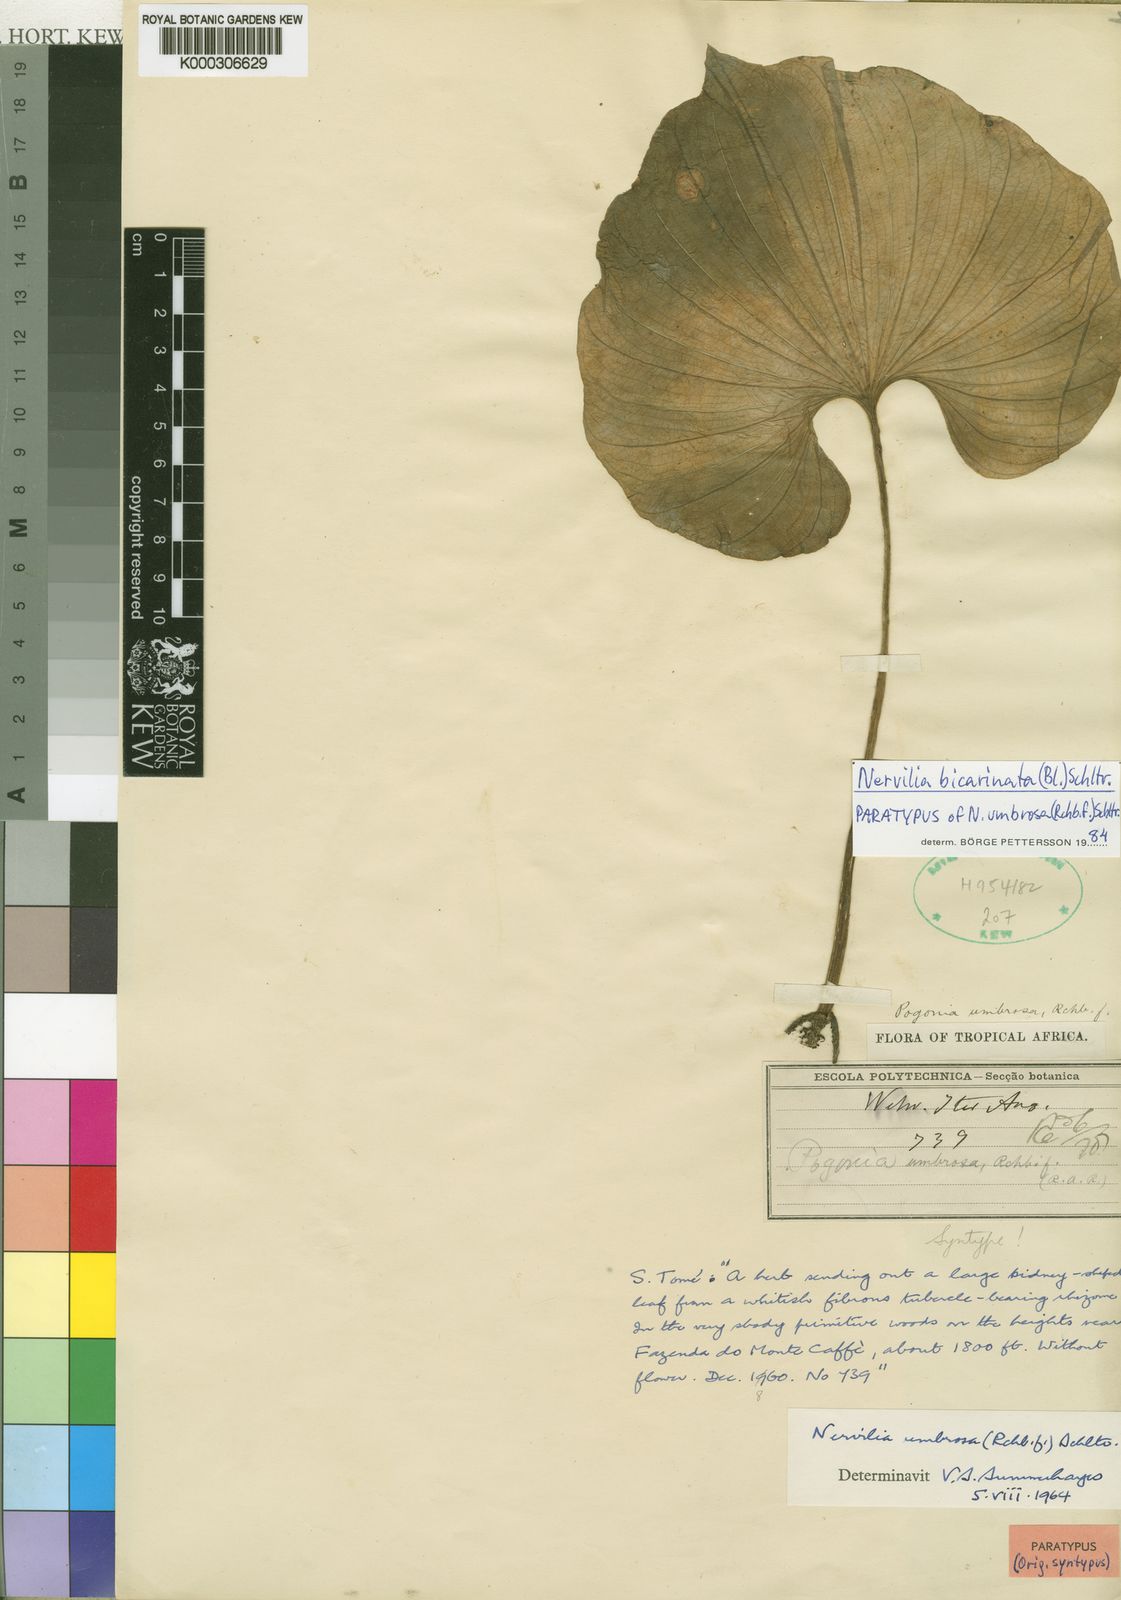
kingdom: Plantae
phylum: Tracheophyta
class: Liliopsida
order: Asparagales
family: Orchidaceae
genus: Nervilia
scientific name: Nervilia bicarinata
